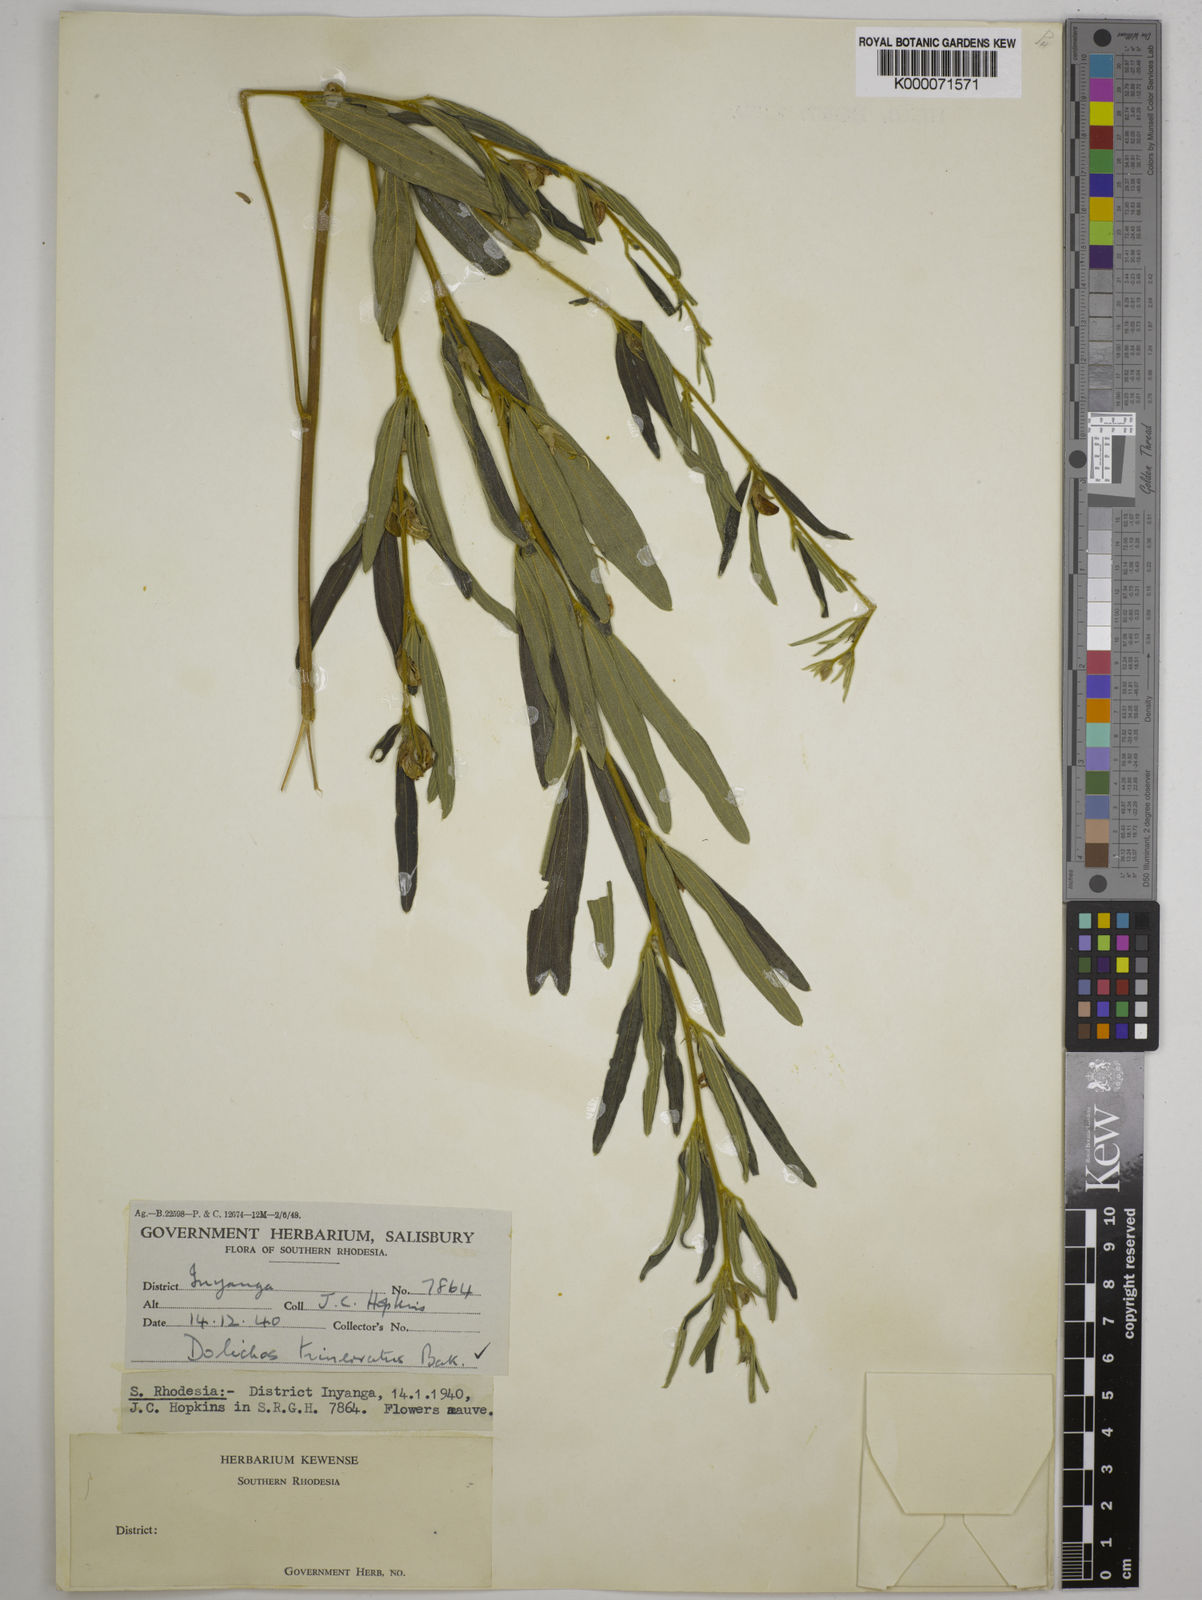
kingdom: Plantae
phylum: Tracheophyta
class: Magnoliopsida
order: Fabales
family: Fabaceae
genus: Dolichos
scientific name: Dolichos trinervatus
